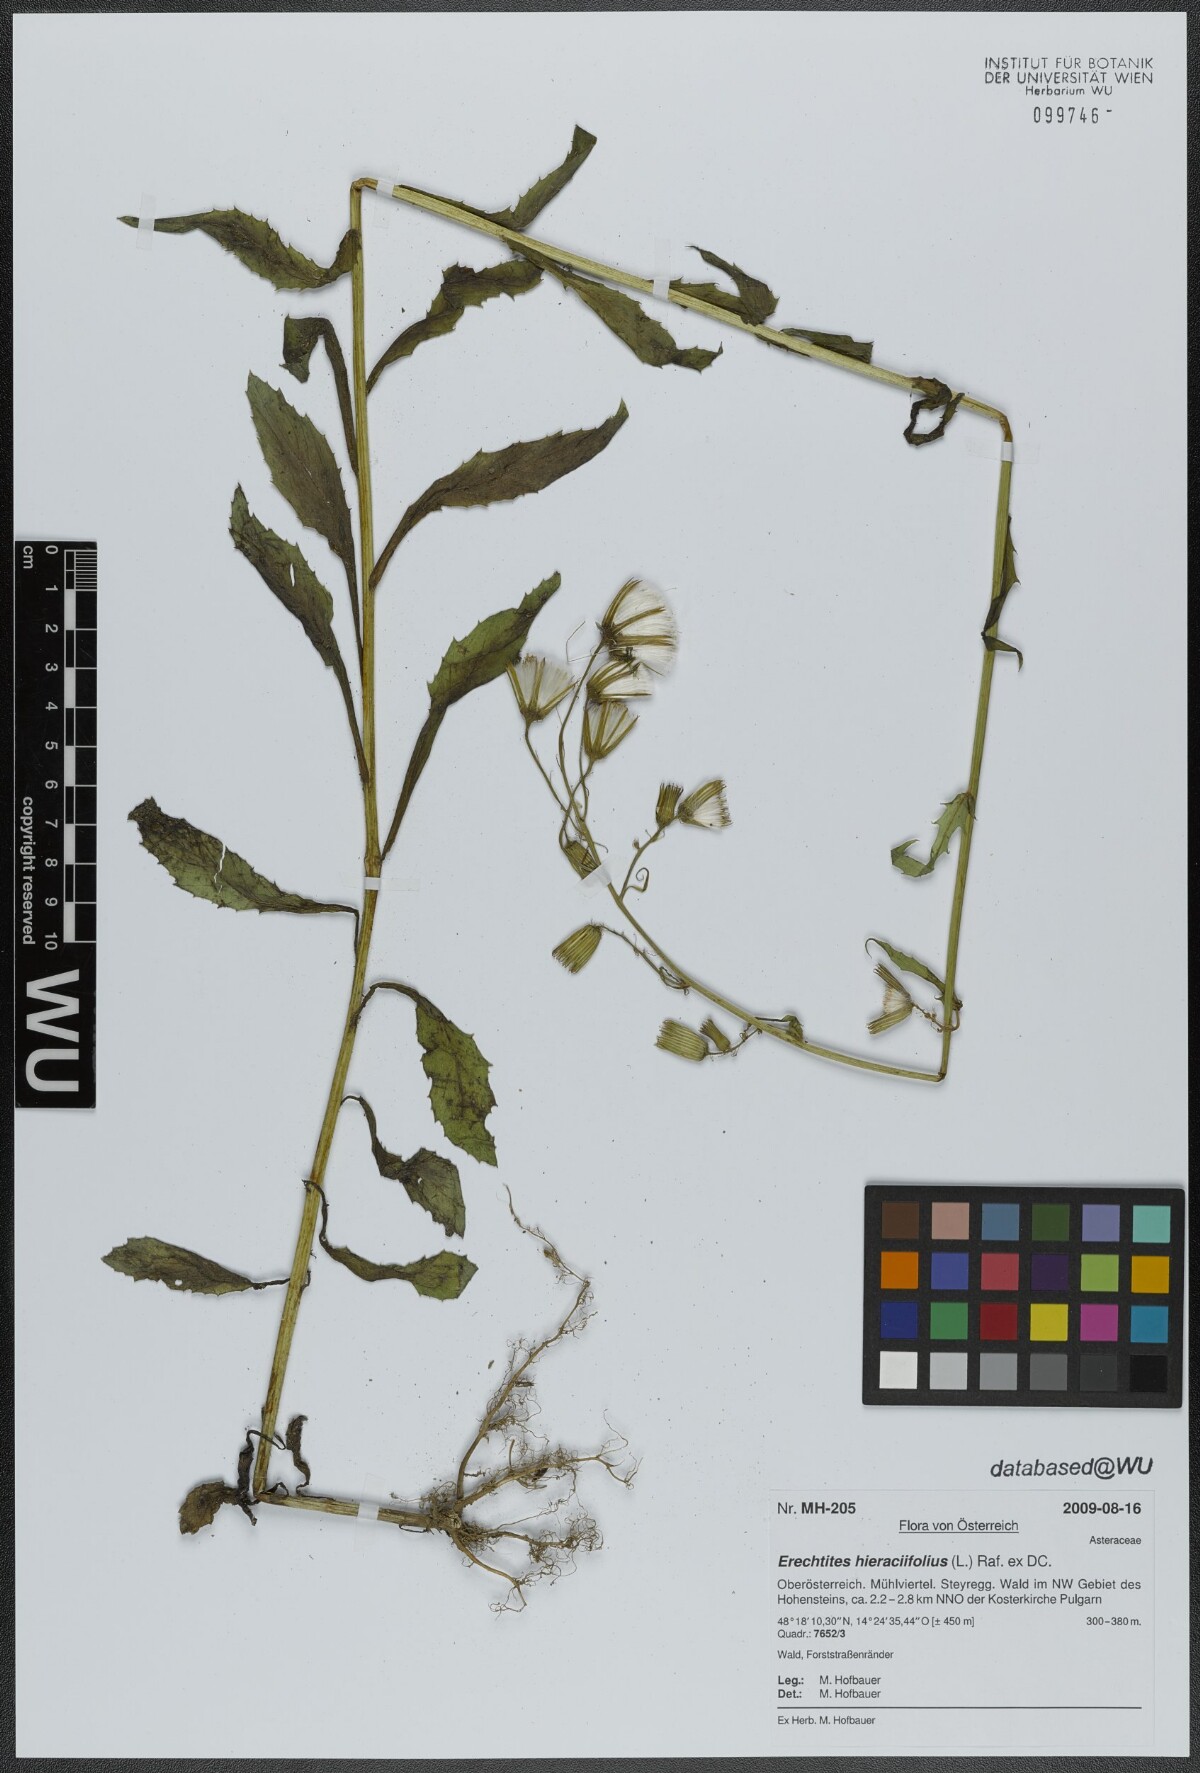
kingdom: Plantae
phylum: Tracheophyta
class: Magnoliopsida
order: Asterales
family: Asteraceae
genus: Erechtites
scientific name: Erechtites hieraciifolius
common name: American burnweed
